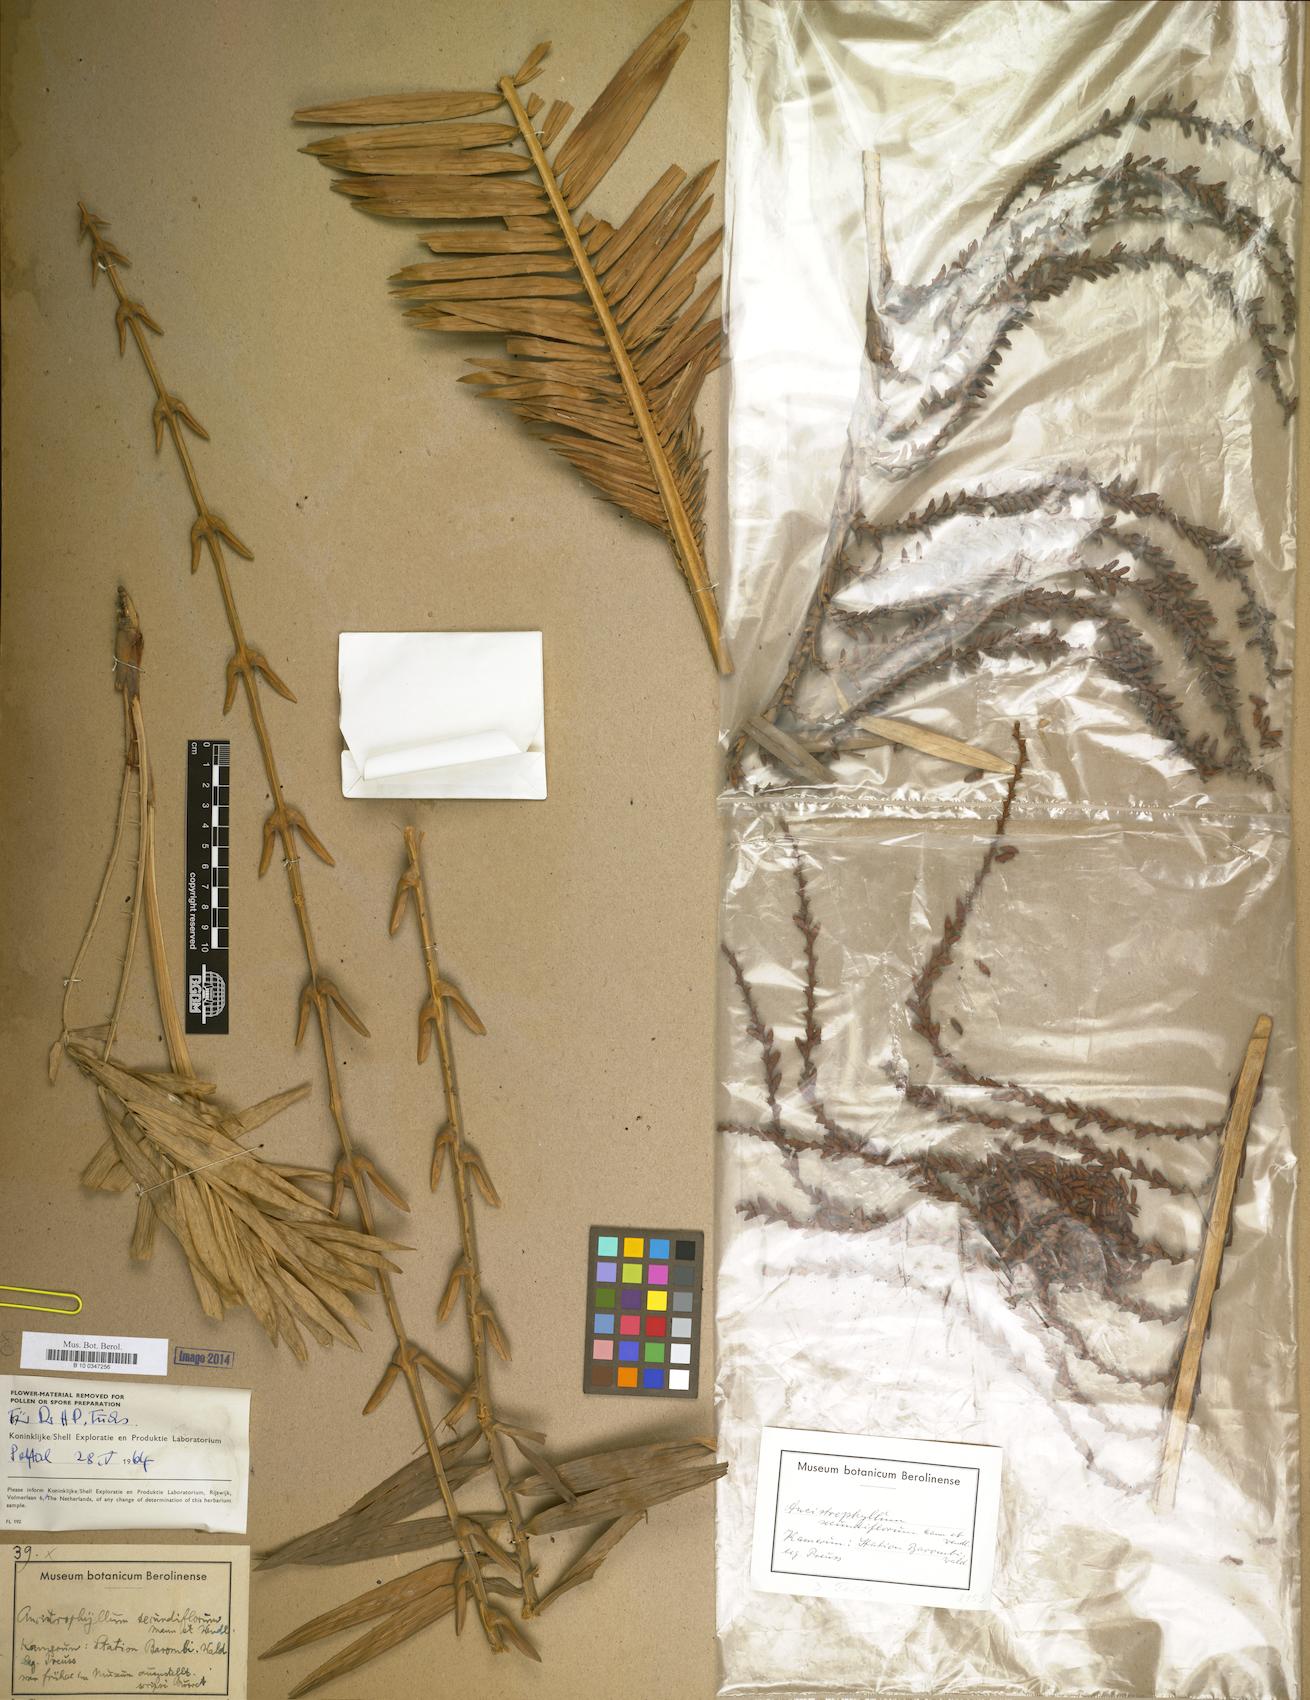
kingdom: Plantae
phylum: Tracheophyta
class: Liliopsida
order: Arecales
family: Arecaceae
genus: Laccosperma
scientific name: Laccosperma secundiflorum
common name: Rattan
